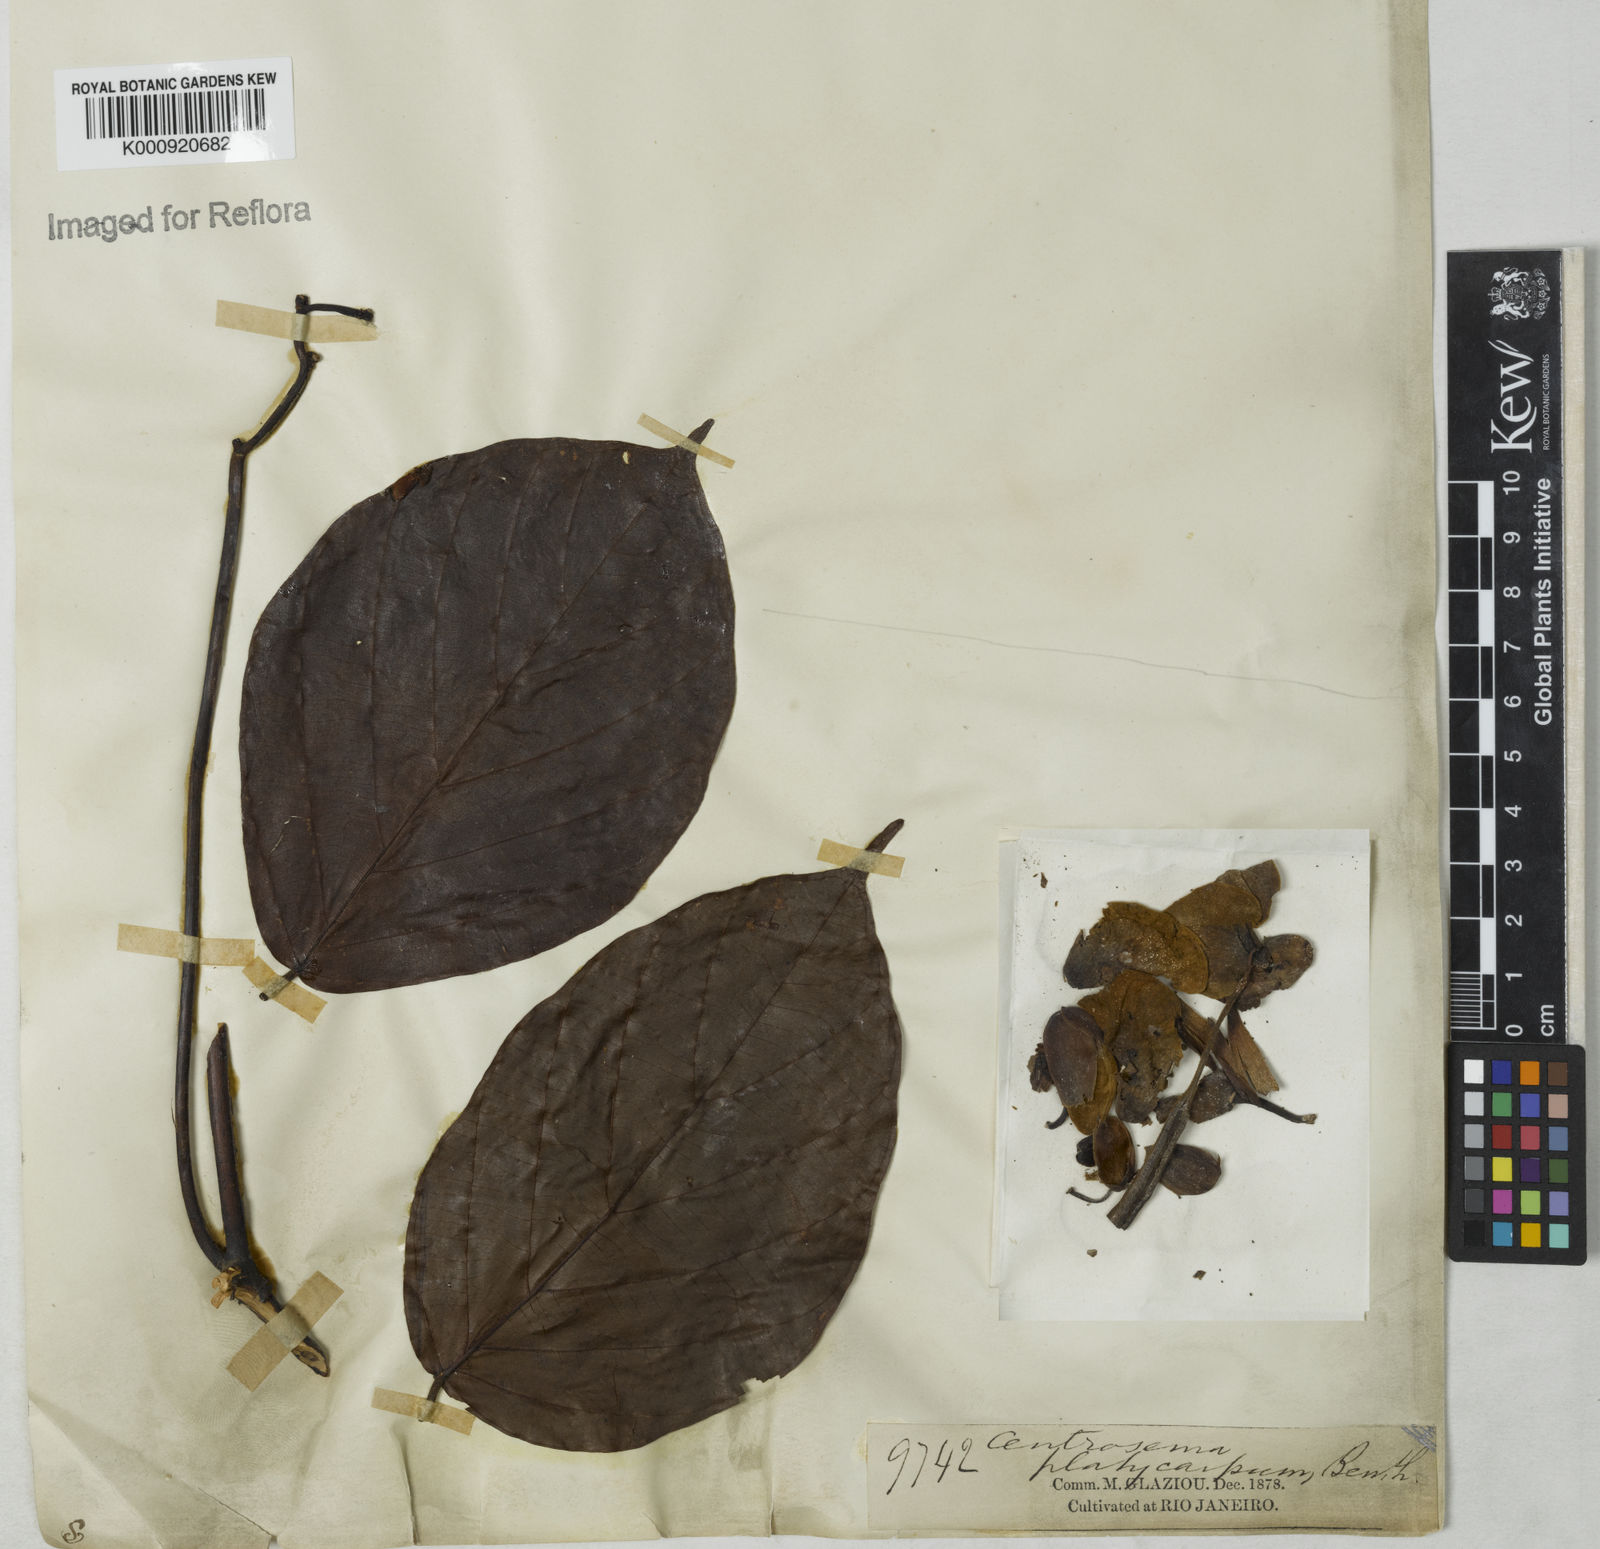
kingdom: Plantae
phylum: Tracheophyta
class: Magnoliopsida
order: Fabales
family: Fabaceae
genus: Centrosema
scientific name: Centrosema platycarpum
